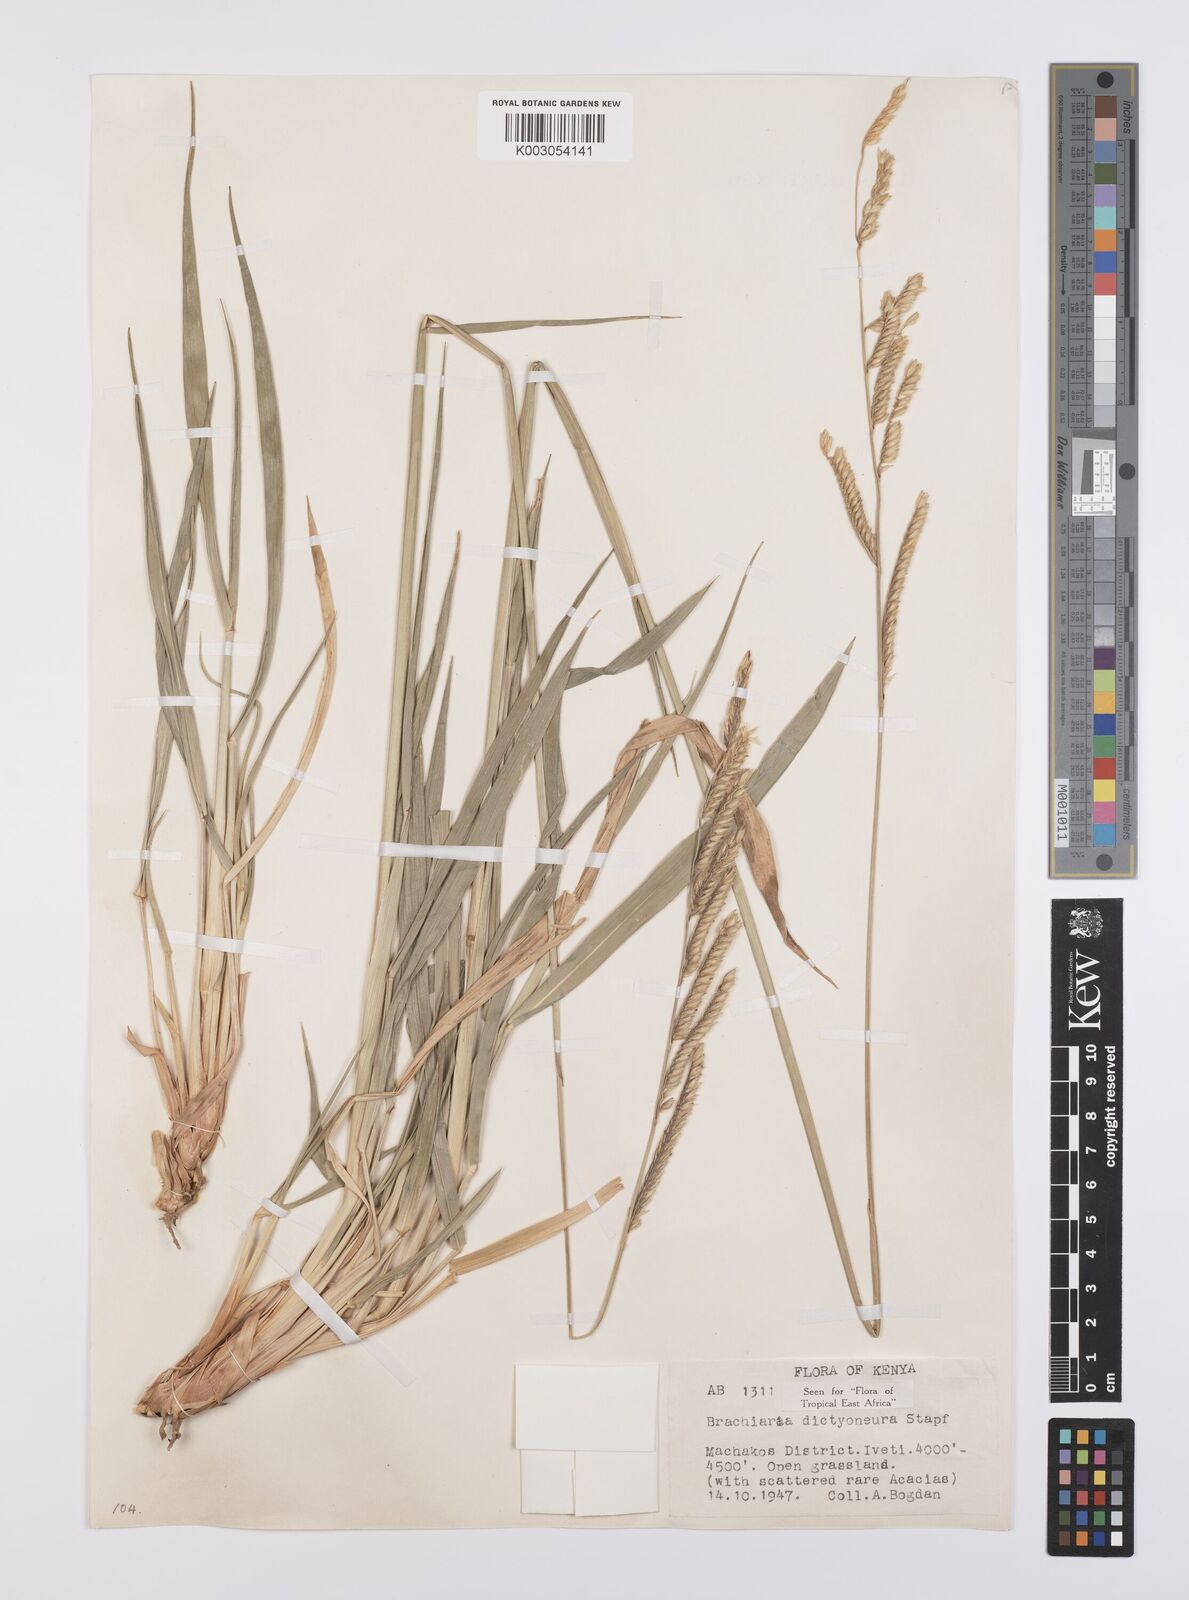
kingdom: Plantae
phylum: Tracheophyta
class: Liliopsida
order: Poales
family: Poaceae
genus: Urochloa
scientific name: Urochloa dictyoneura
